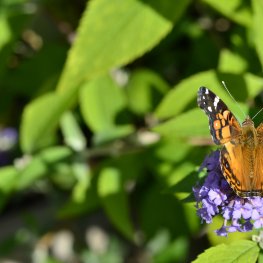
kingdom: Animalia
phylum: Arthropoda
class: Insecta
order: Lepidoptera
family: Nymphalidae
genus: Vanessa
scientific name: Vanessa virginiensis
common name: American Lady
